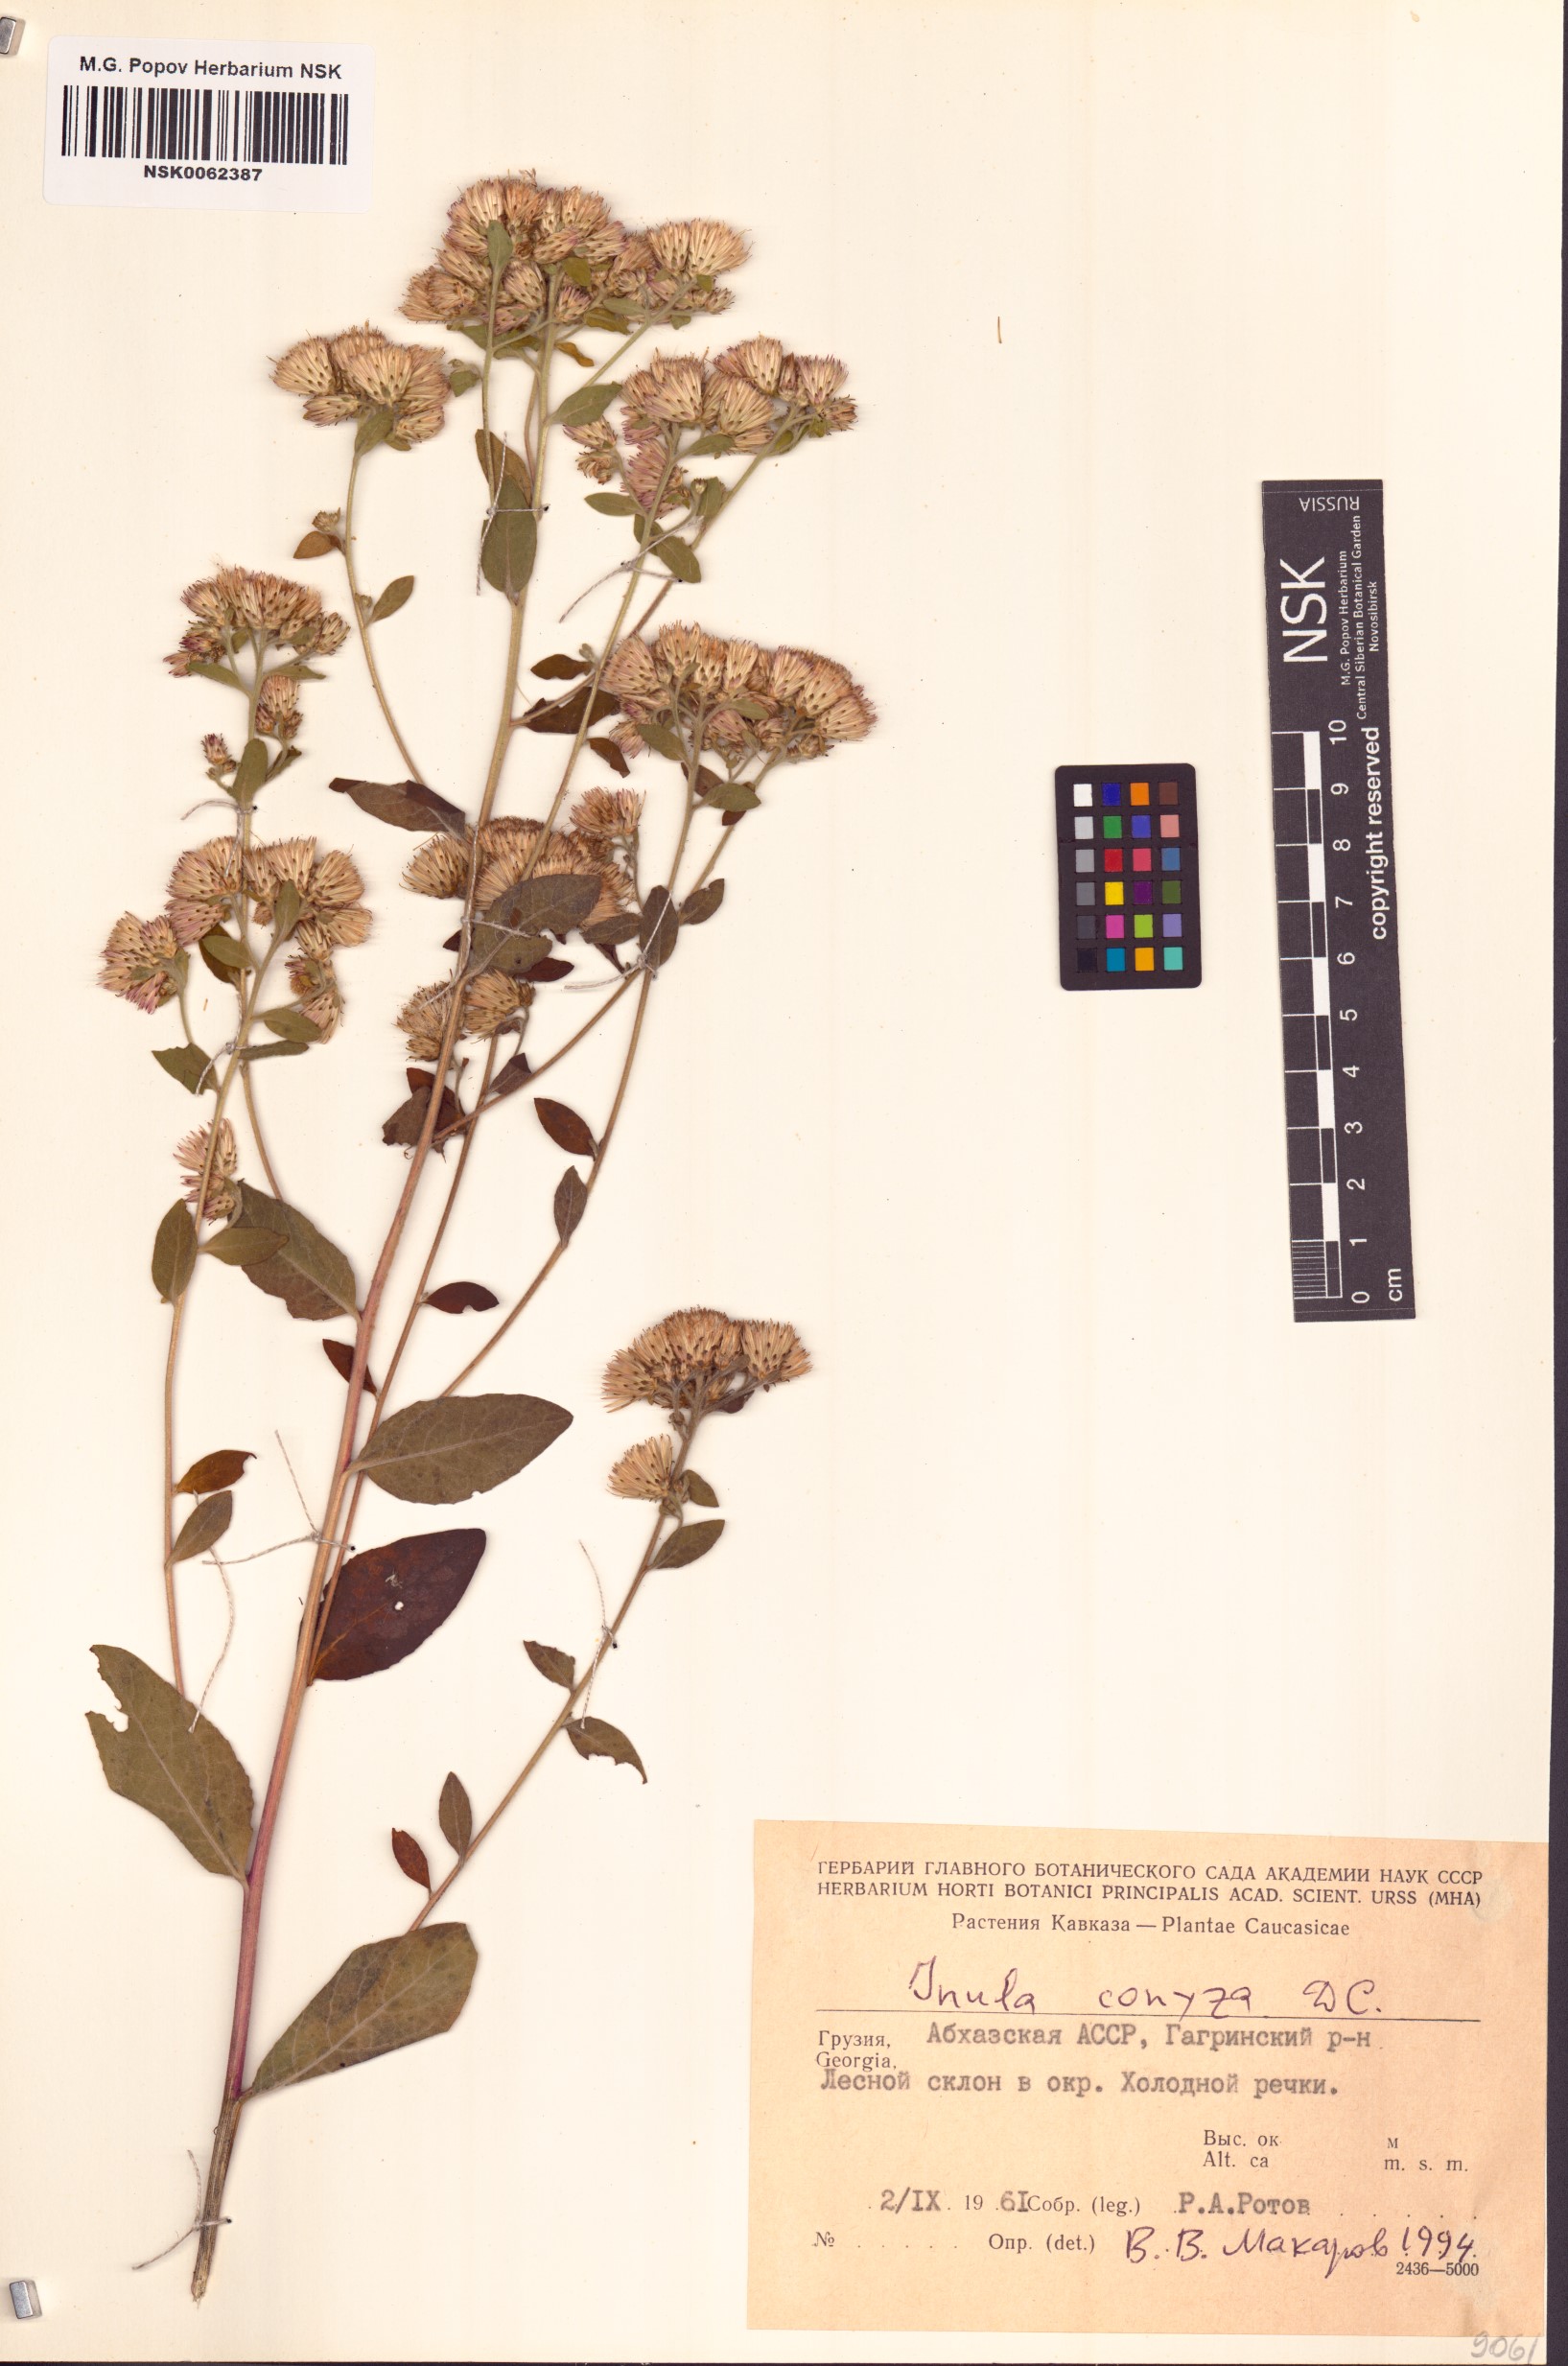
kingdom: Plantae
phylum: Tracheophyta
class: Magnoliopsida
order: Asterales
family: Asteraceae
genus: Pentanema
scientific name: Pentanema squarrosum
